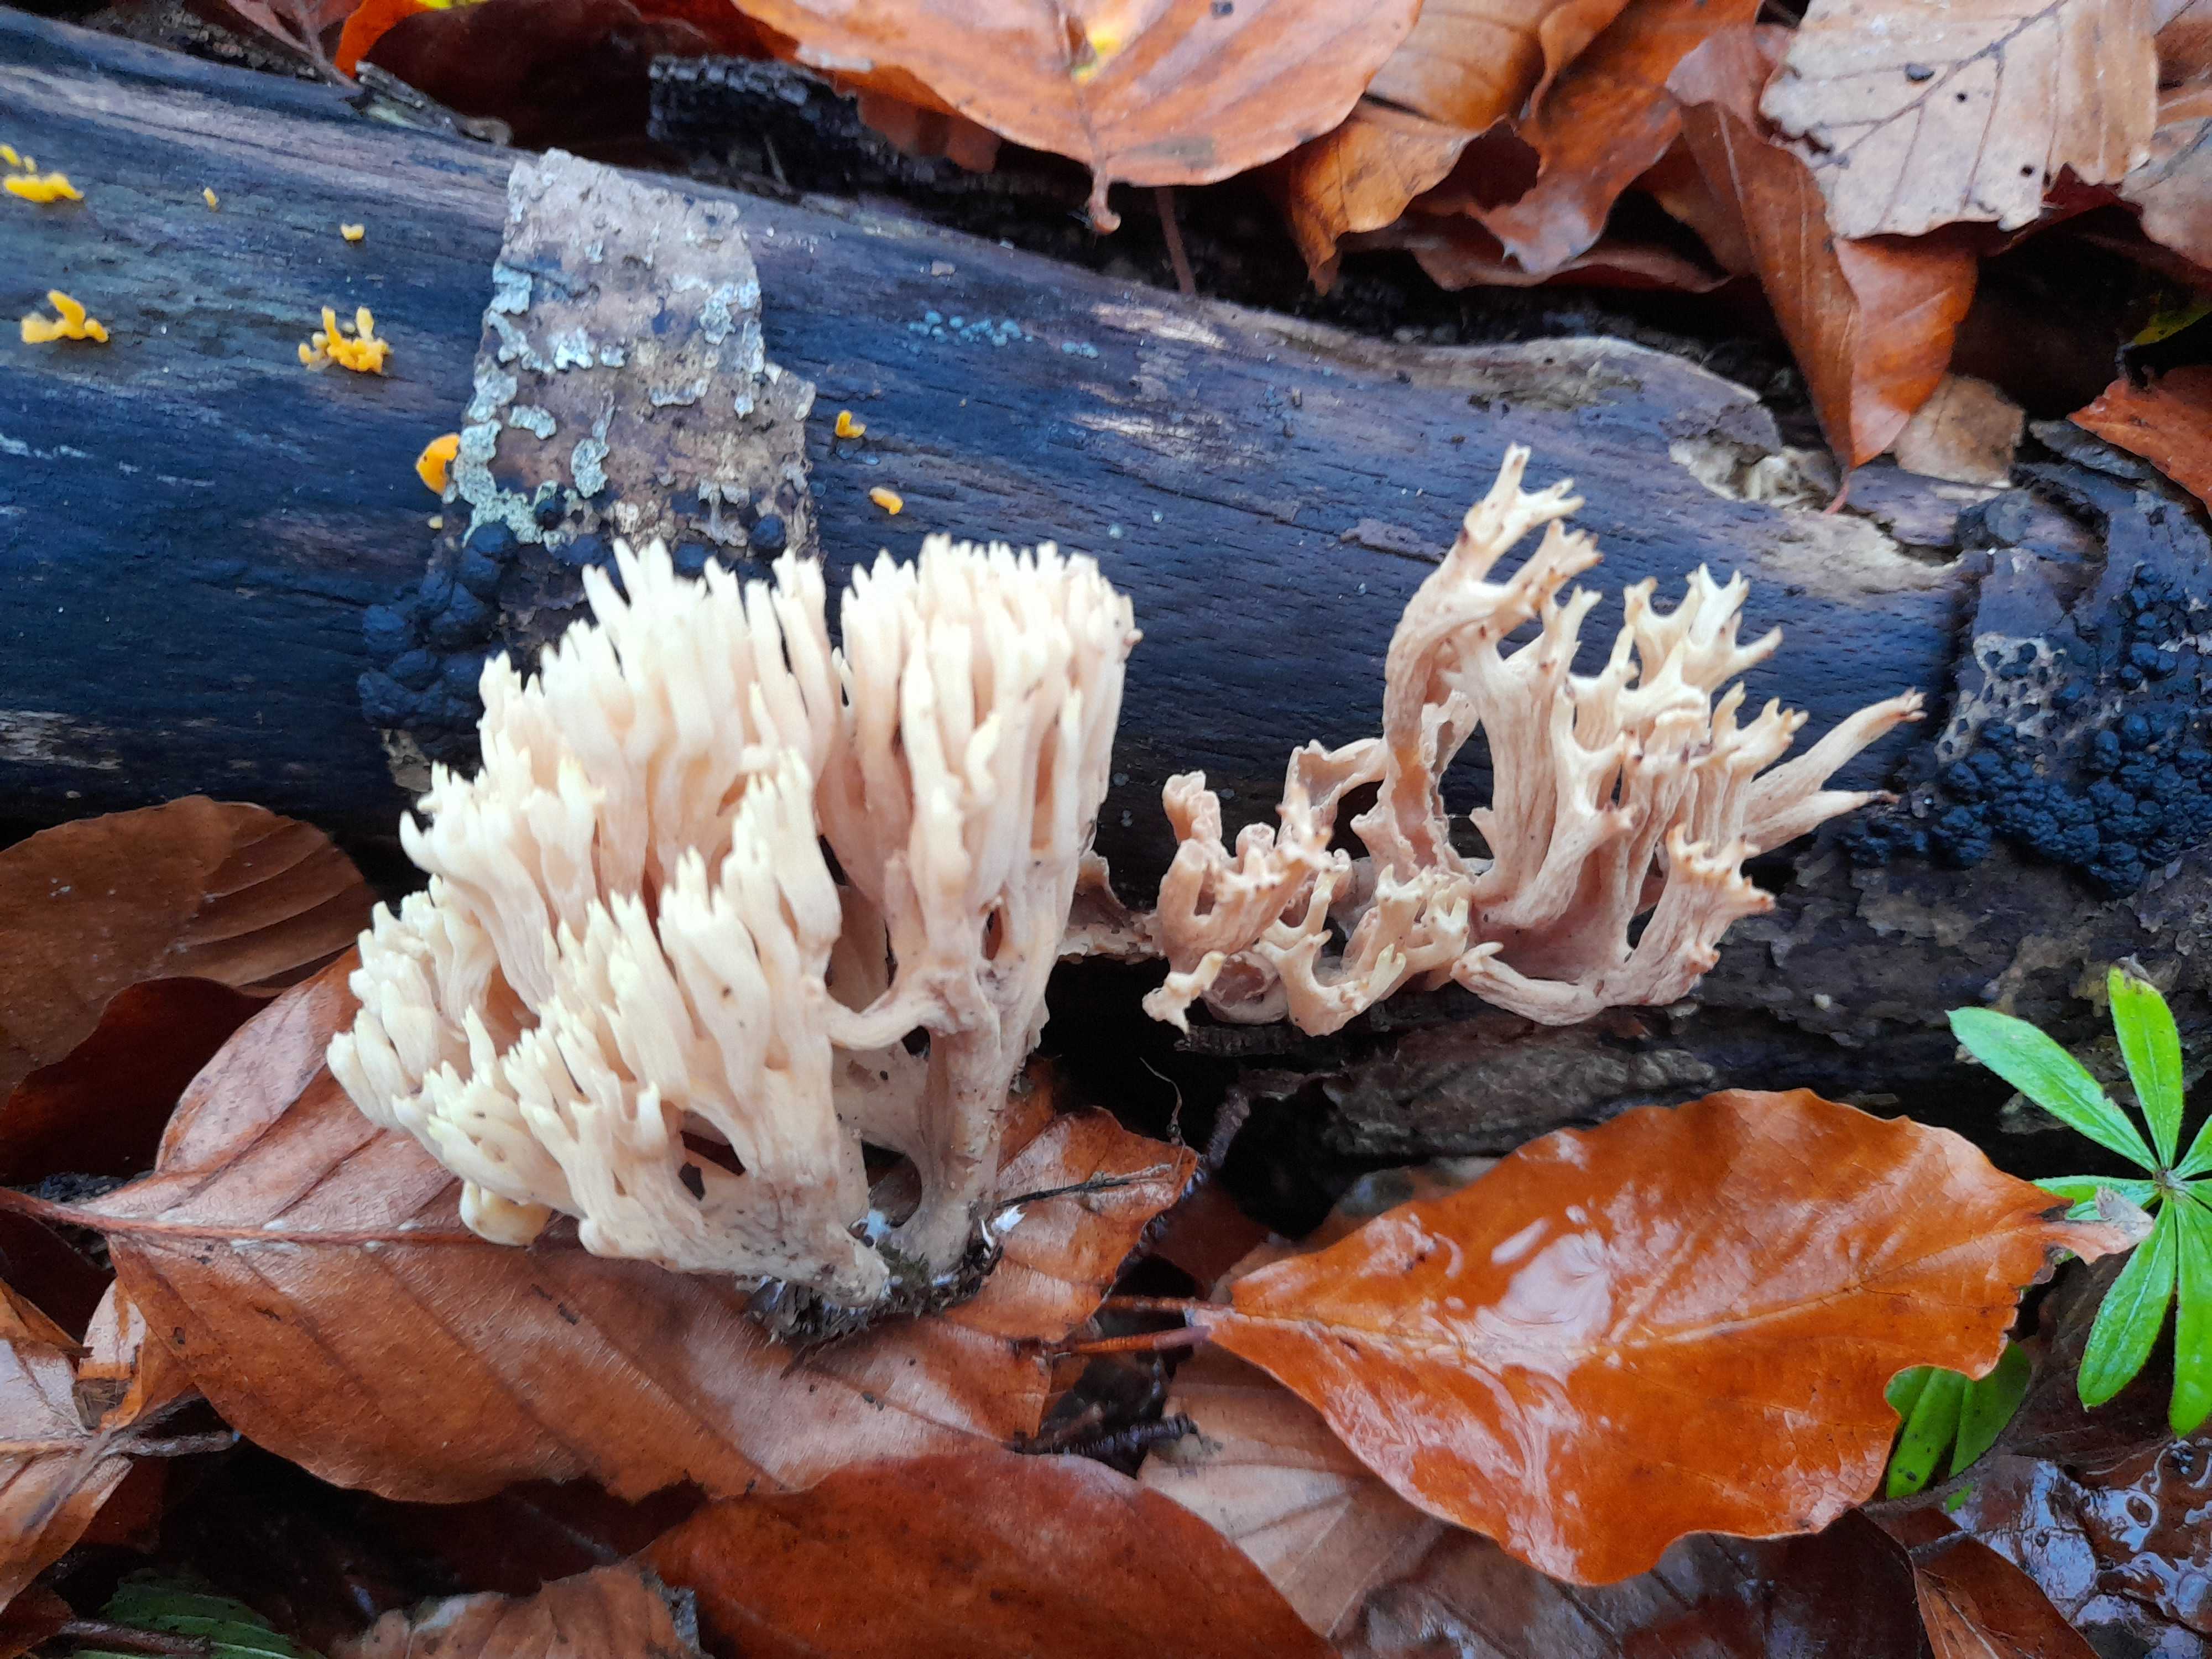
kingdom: Fungi
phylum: Basidiomycota
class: Agaricomycetes
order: Gomphales
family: Gomphaceae
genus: Ramaria
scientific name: Ramaria stricta
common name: rank koralsvamp
